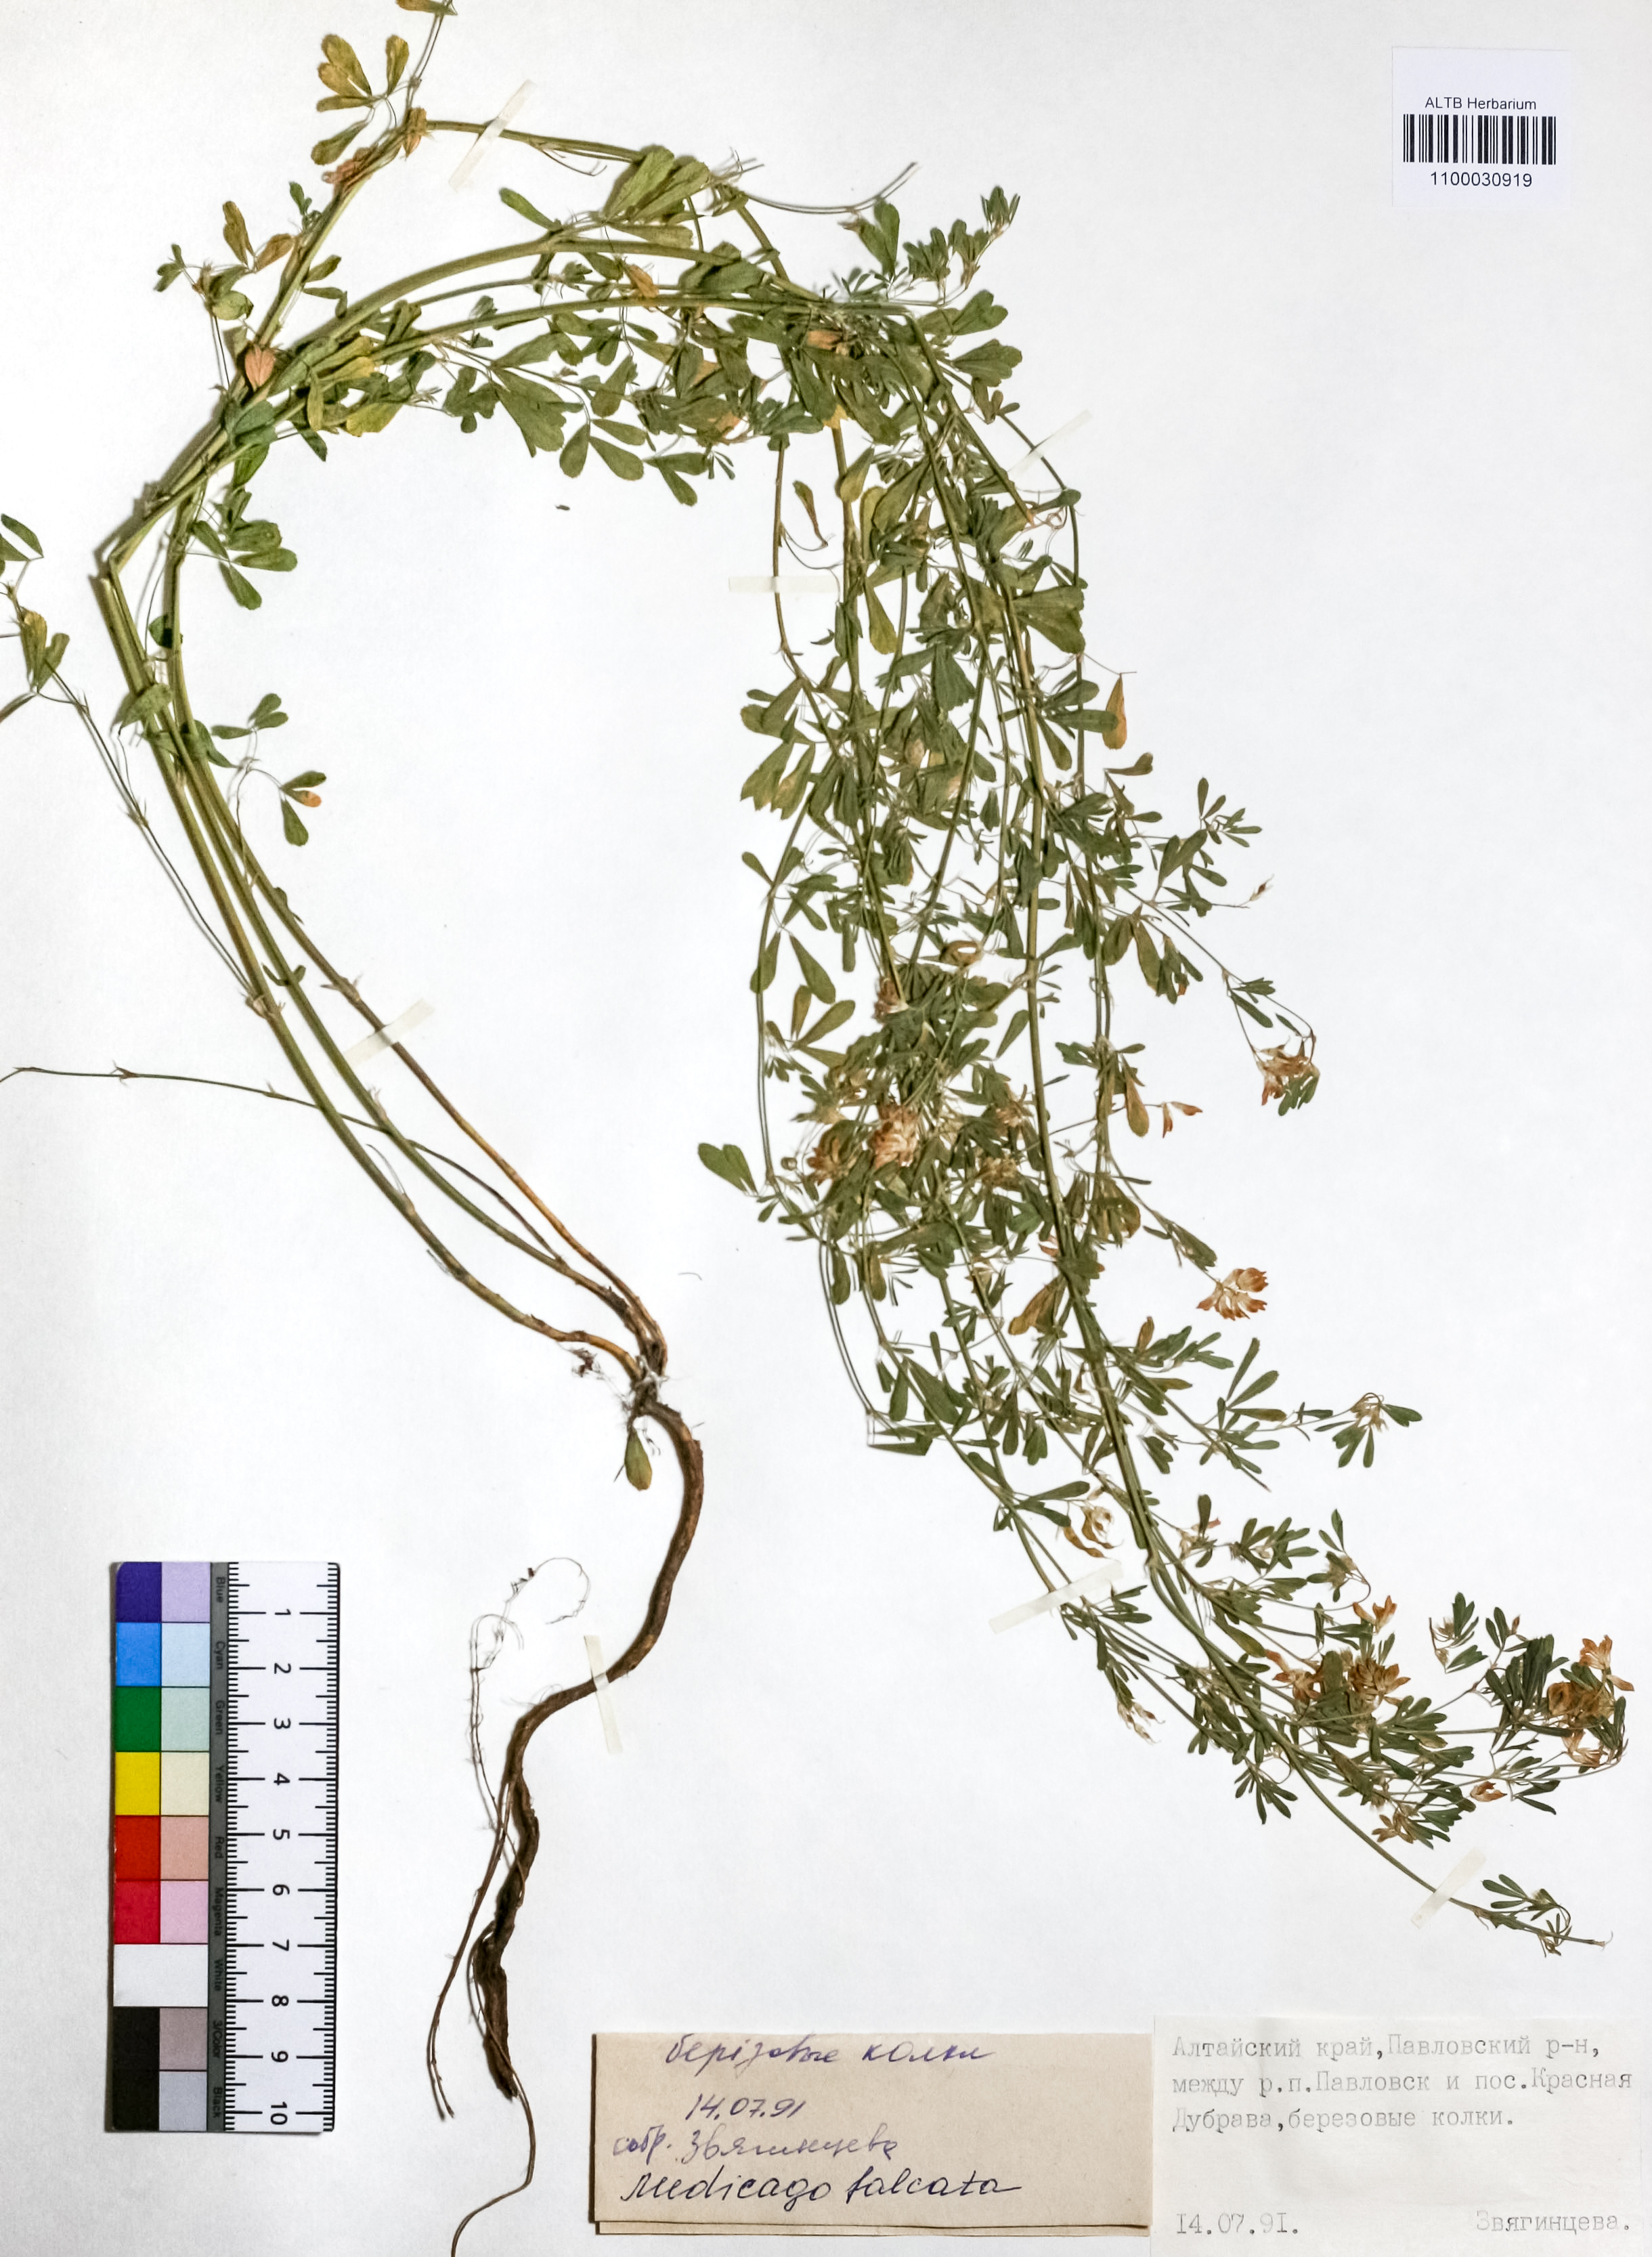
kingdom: Plantae
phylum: Tracheophyta
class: Magnoliopsida
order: Fabales
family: Fabaceae
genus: Medicago
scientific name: Medicago falcata
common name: Sickle medick
